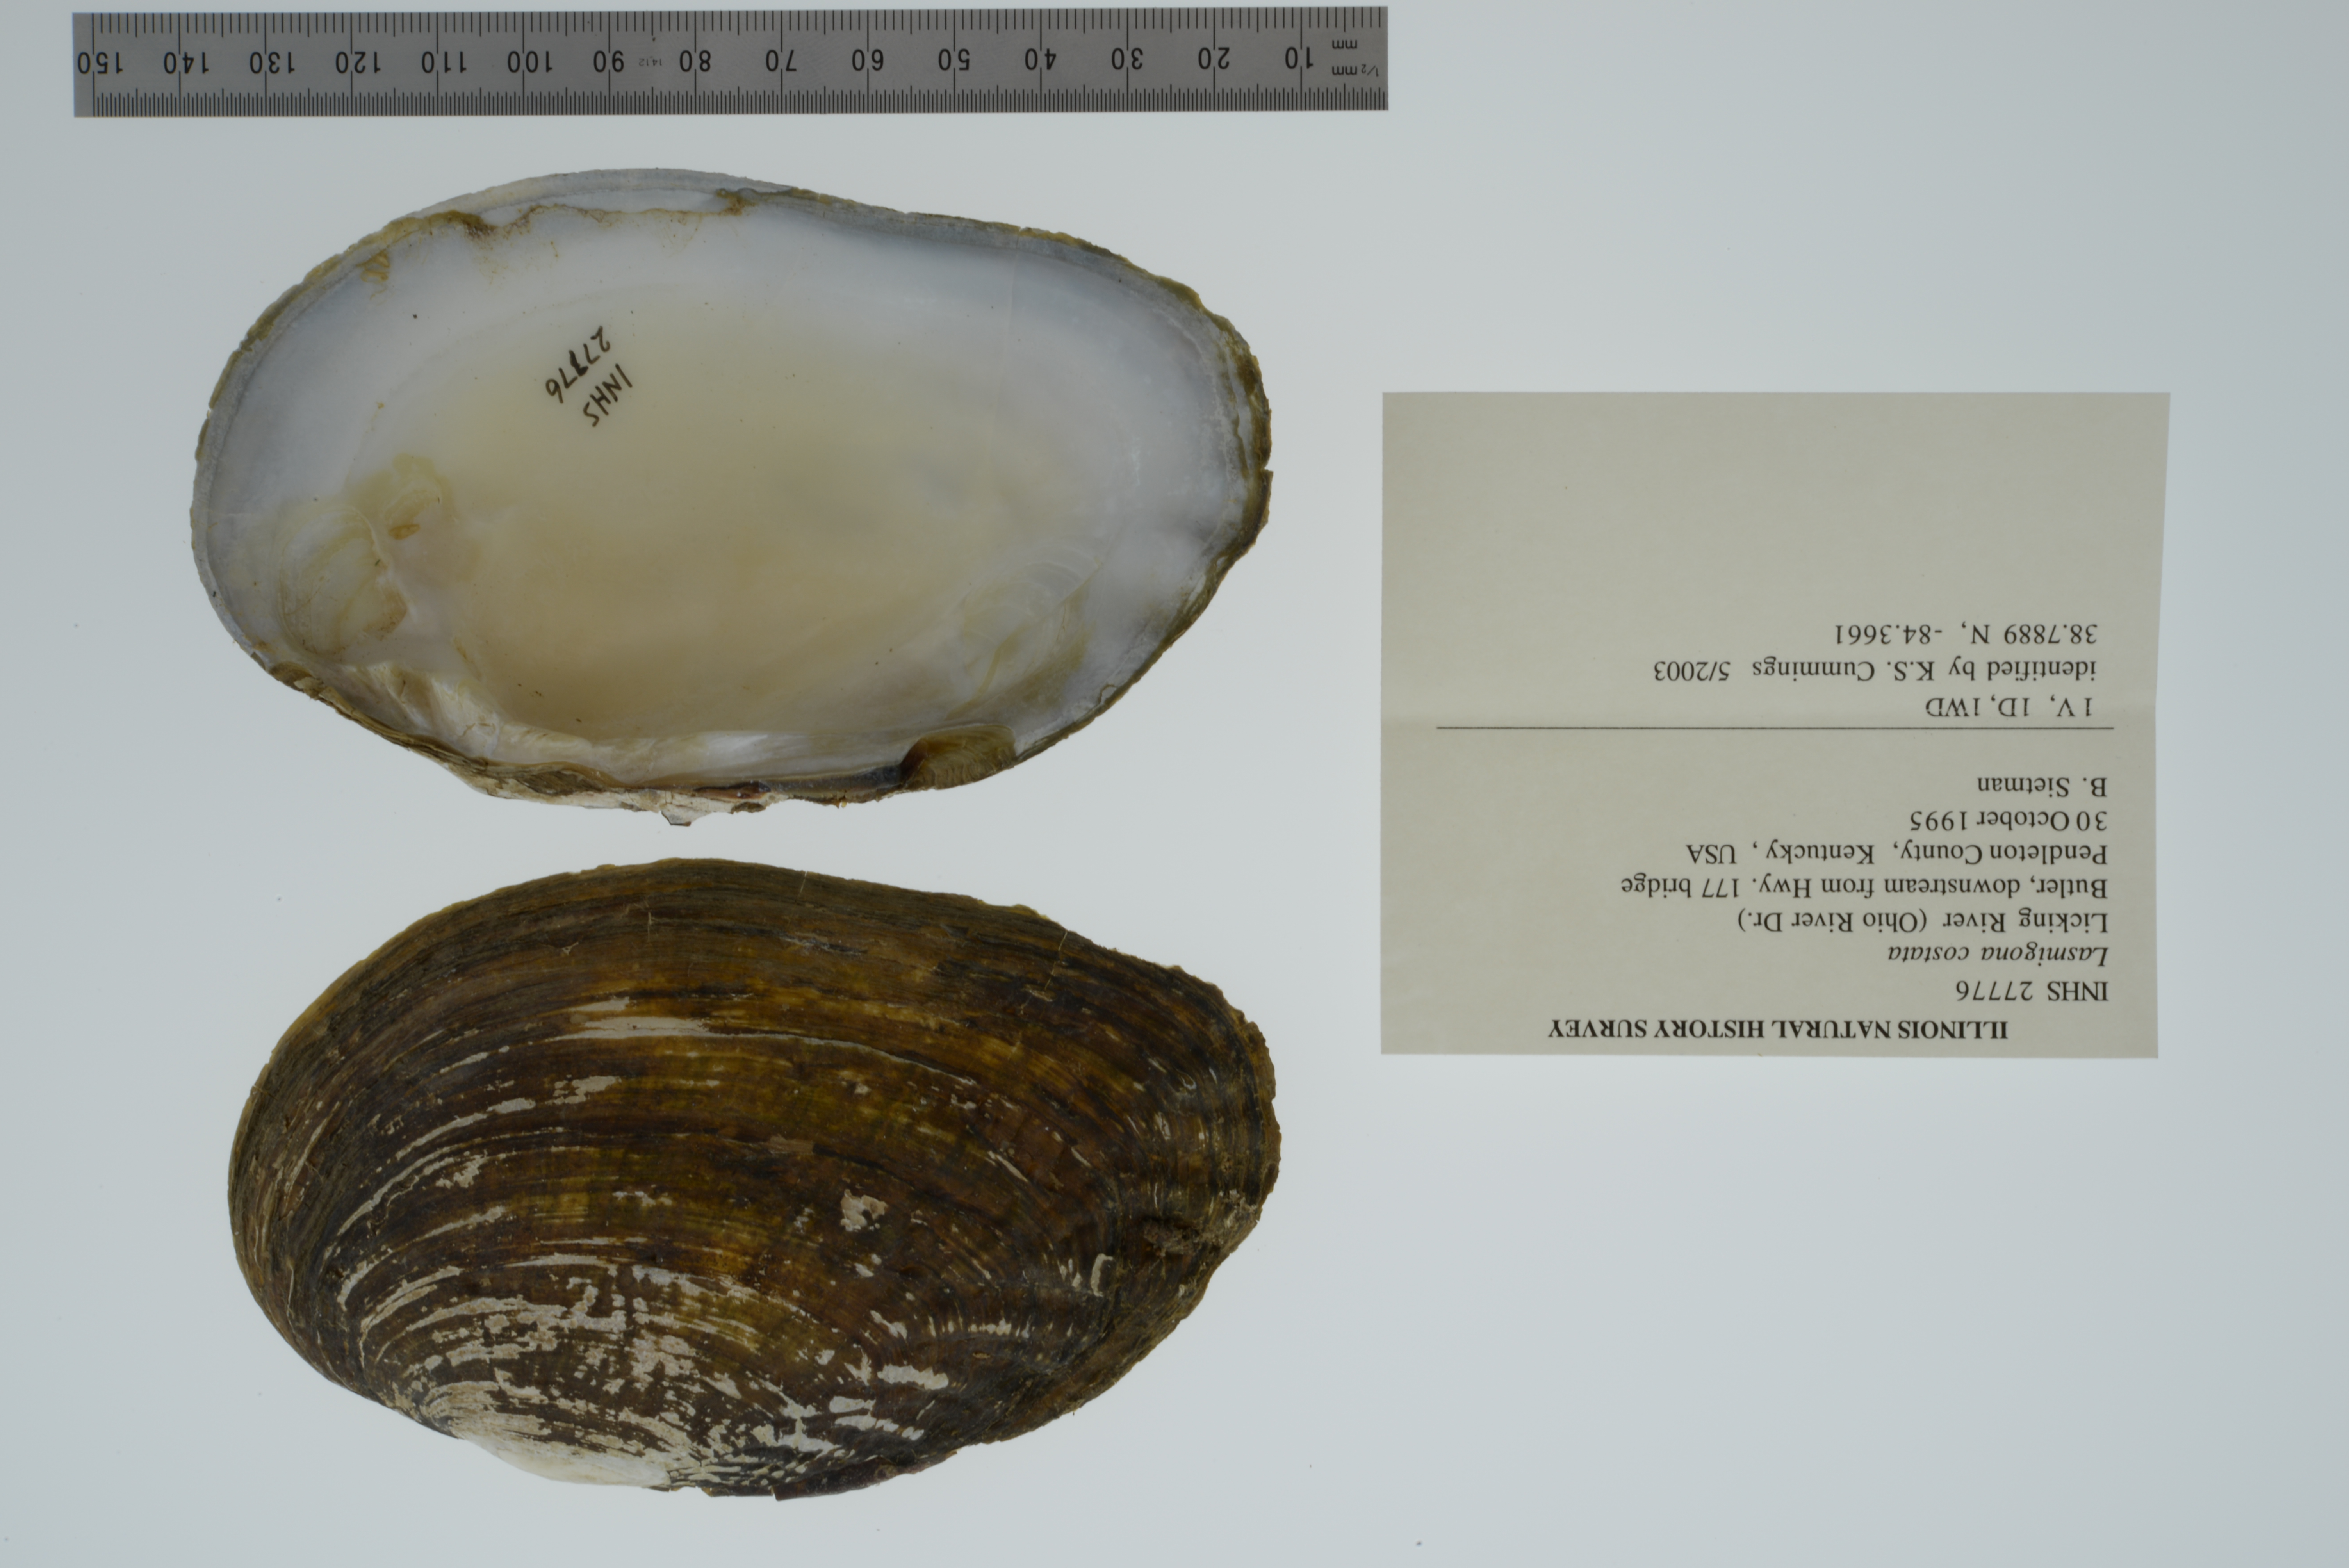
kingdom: Animalia
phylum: Mollusca
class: Bivalvia
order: Unionida
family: Unionidae
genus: Lasmigona
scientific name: Lasmigona costata
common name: Flutedshell
